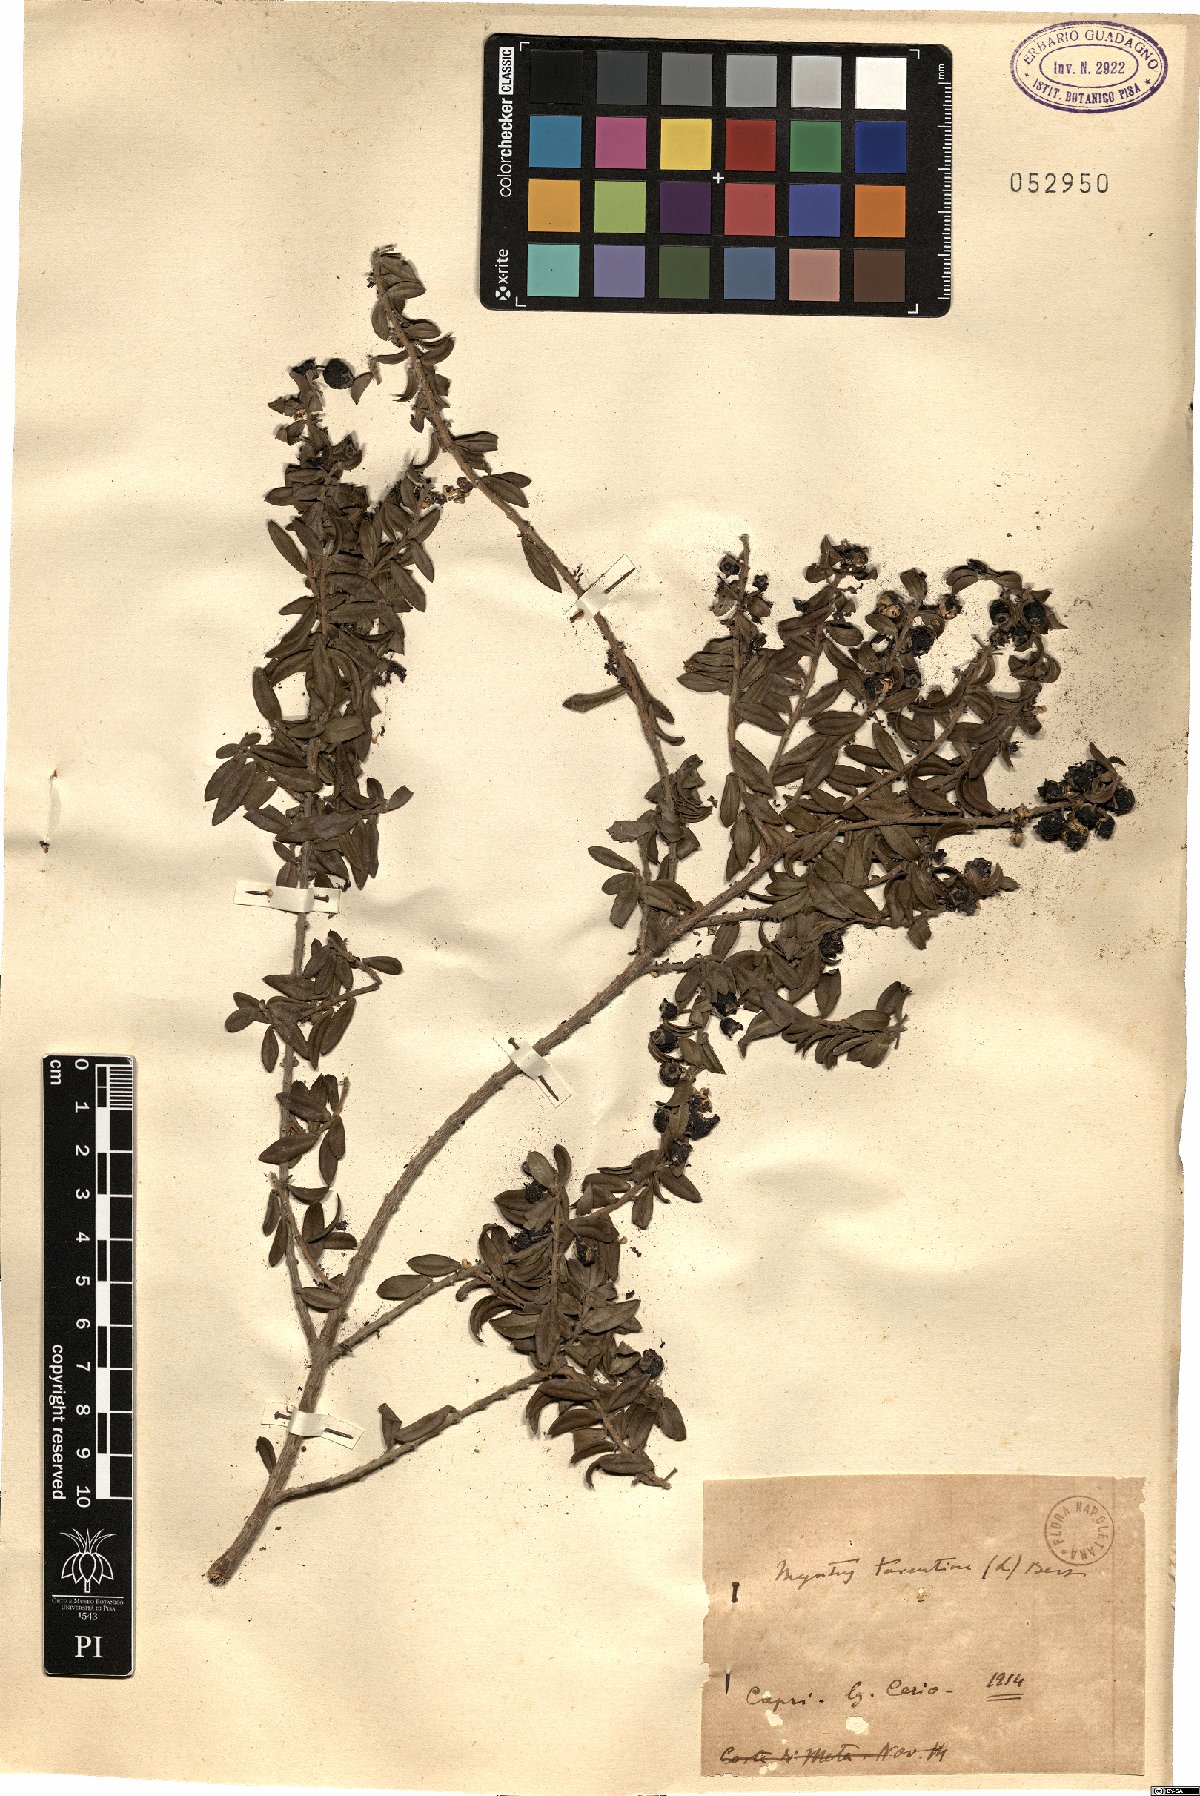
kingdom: Plantae
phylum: Tracheophyta
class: Magnoliopsida
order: Myrtales
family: Myrtaceae
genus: Myrtus
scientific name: Myrtus communis
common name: Myrtle
